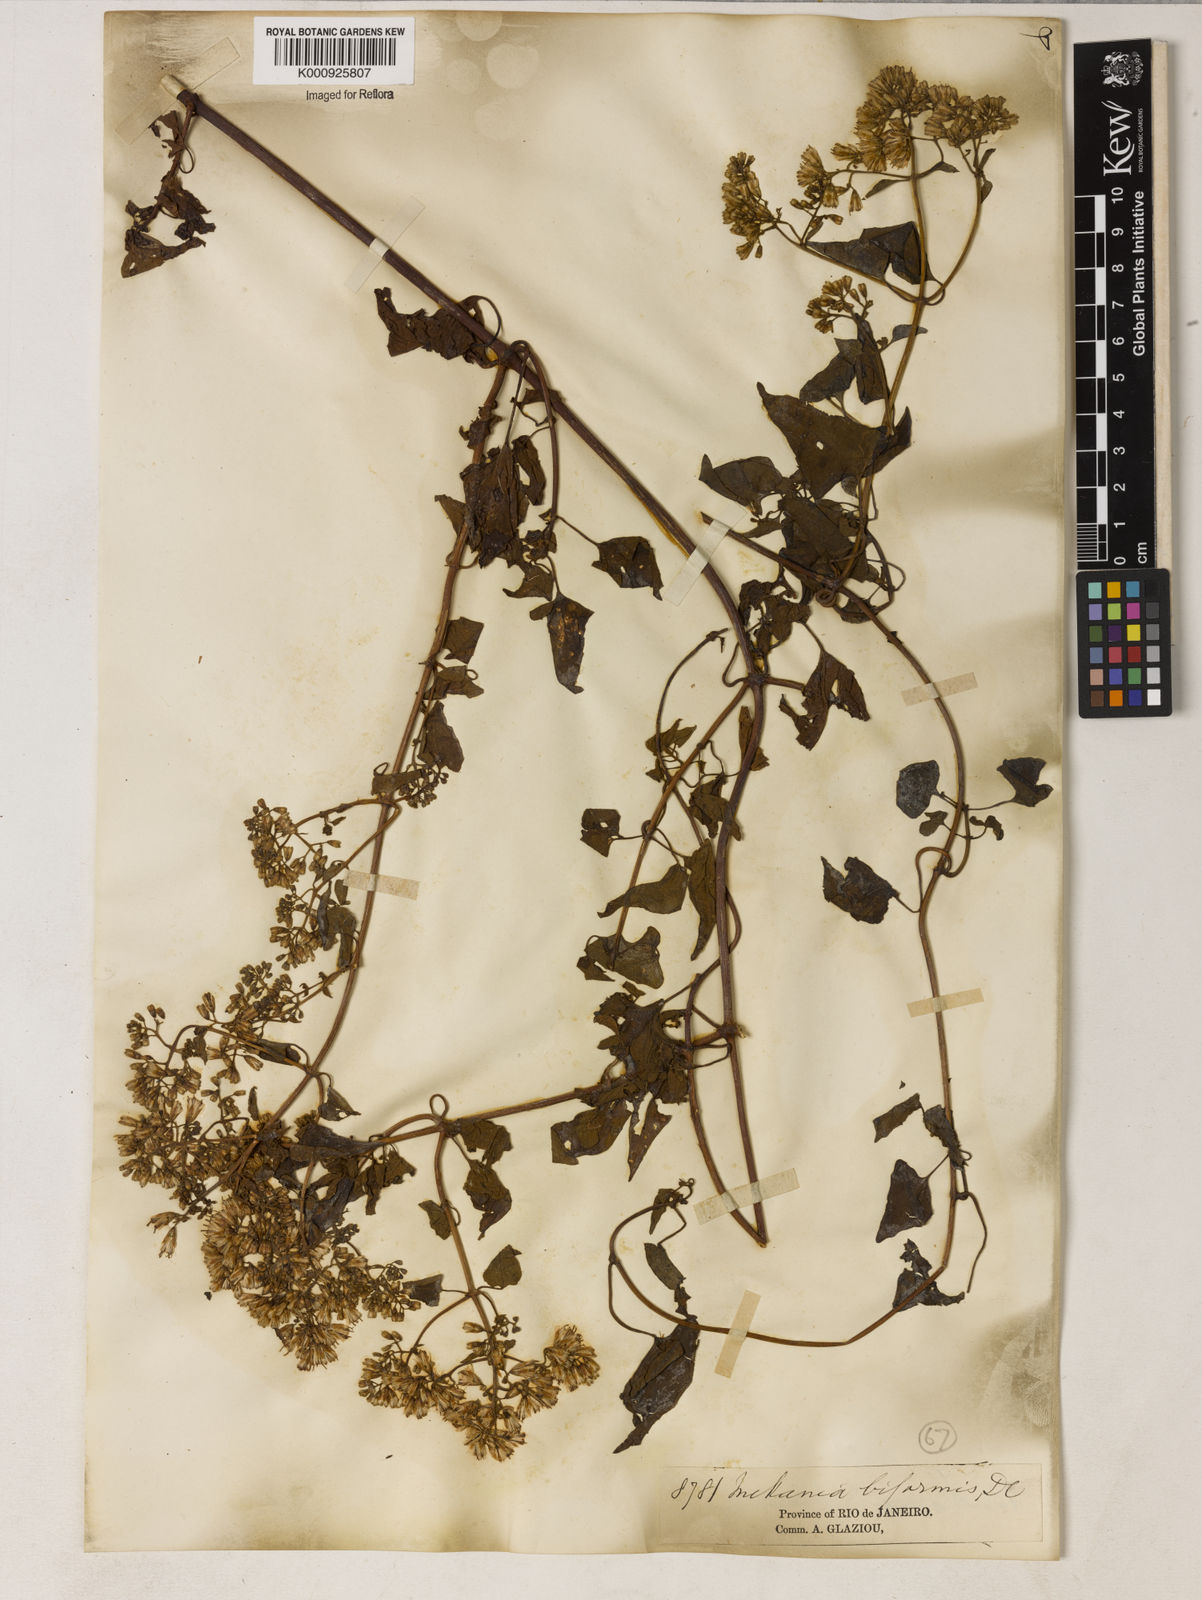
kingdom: Plantae
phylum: Tracheophyta
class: Magnoliopsida
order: Asterales
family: Asteraceae
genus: Mikania
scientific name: Mikania biformis
